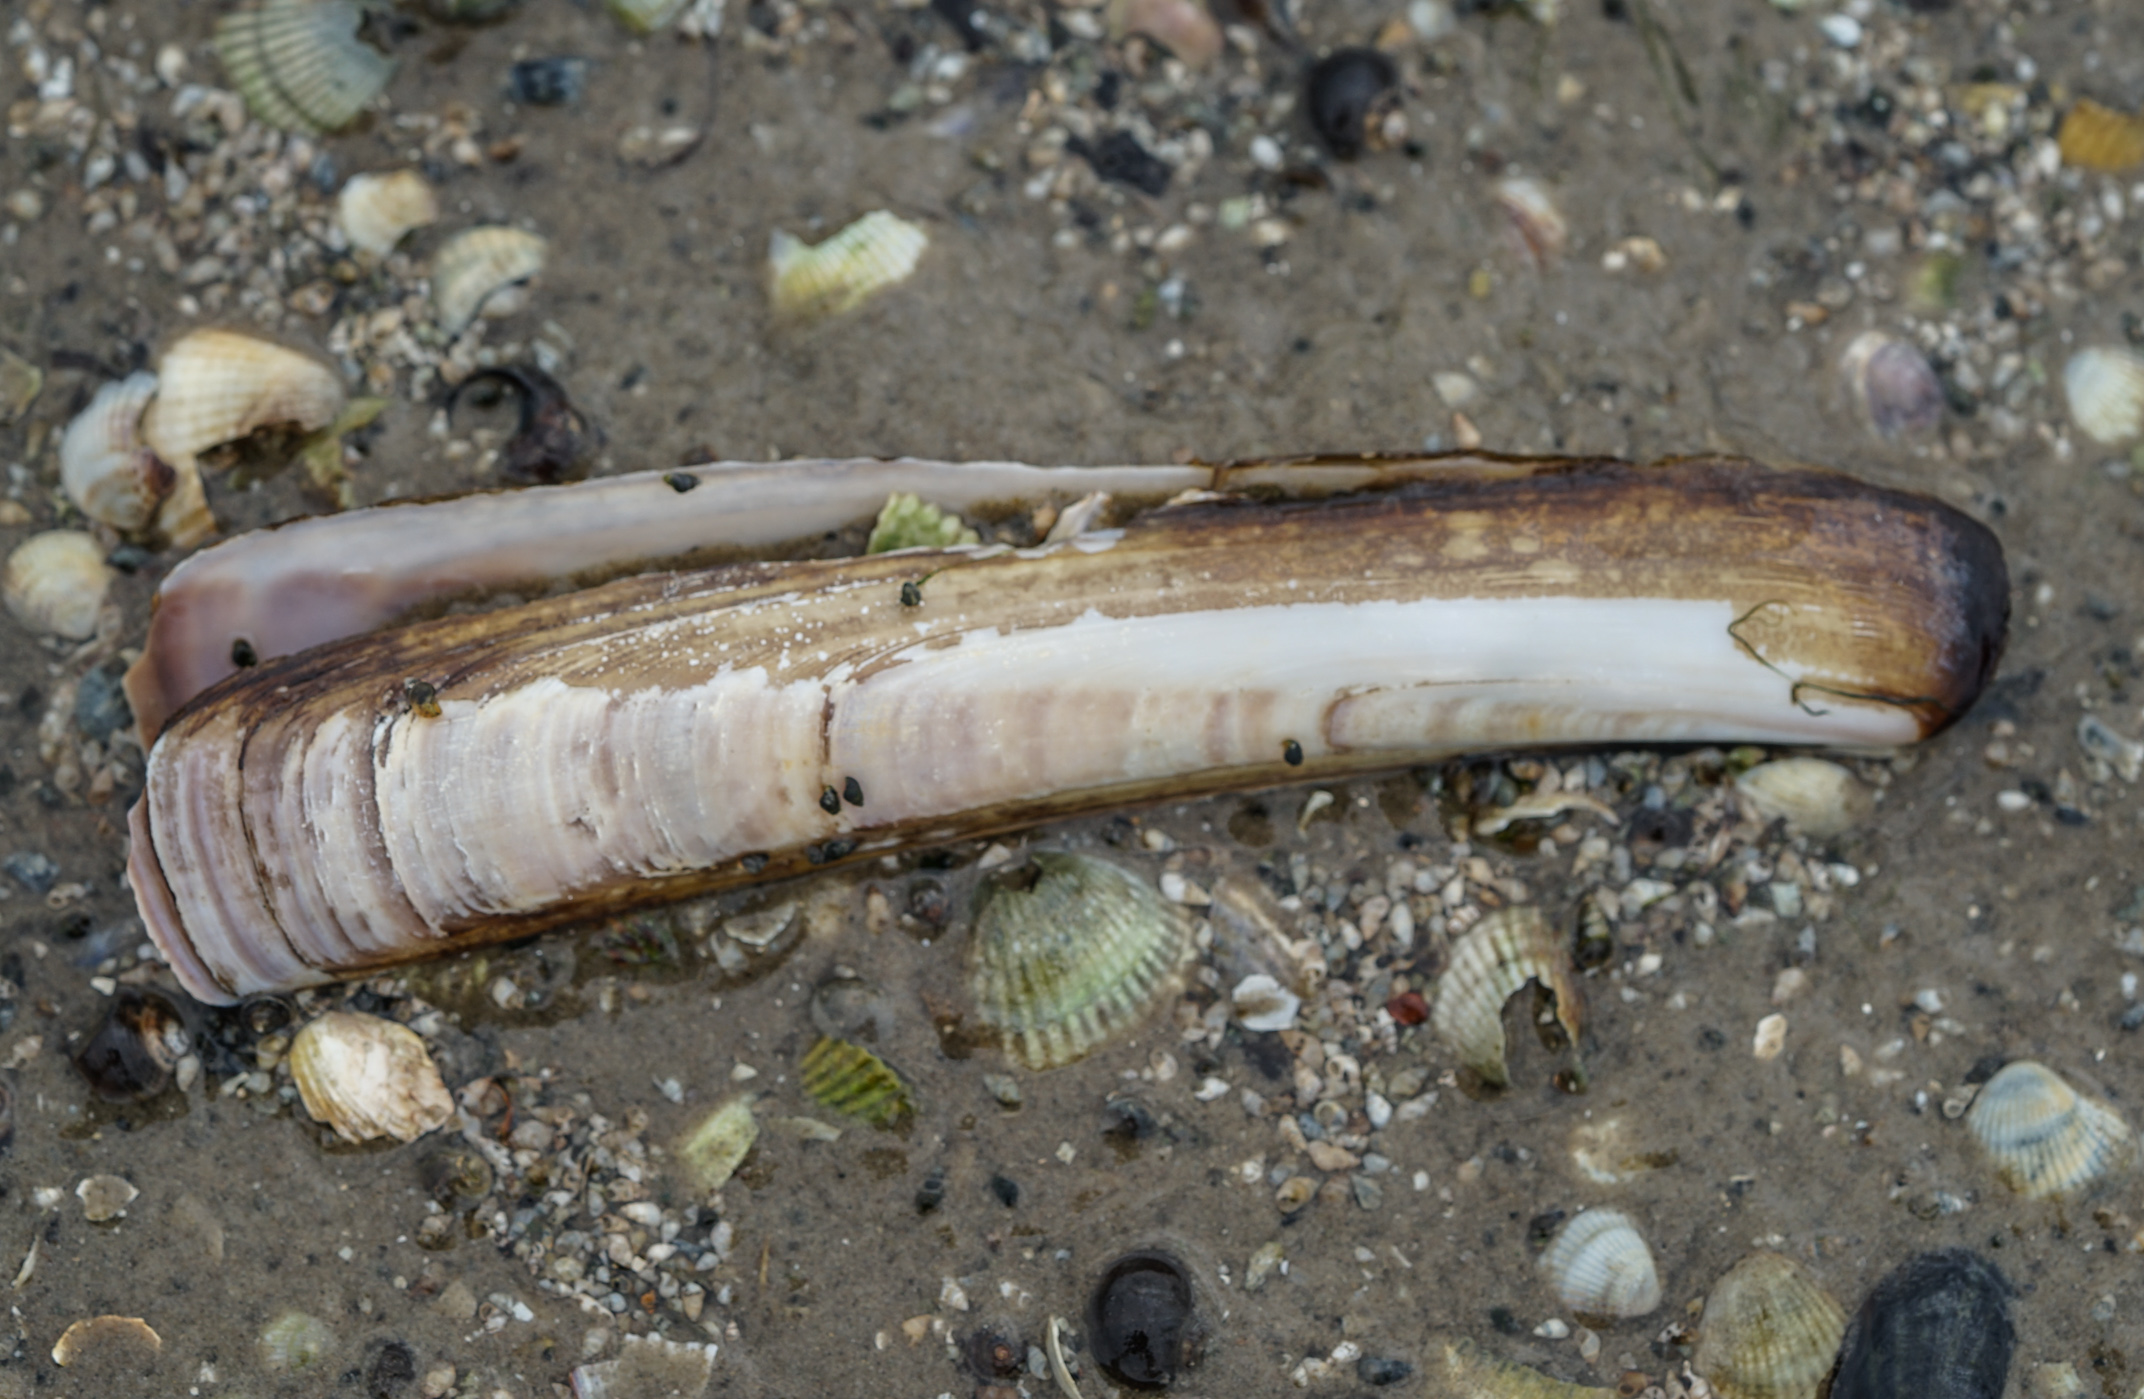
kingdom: Animalia
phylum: Mollusca
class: Bivalvia
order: Adapedonta
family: Pharidae
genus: Ensis
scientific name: Ensis leei
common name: American jack knife clam
